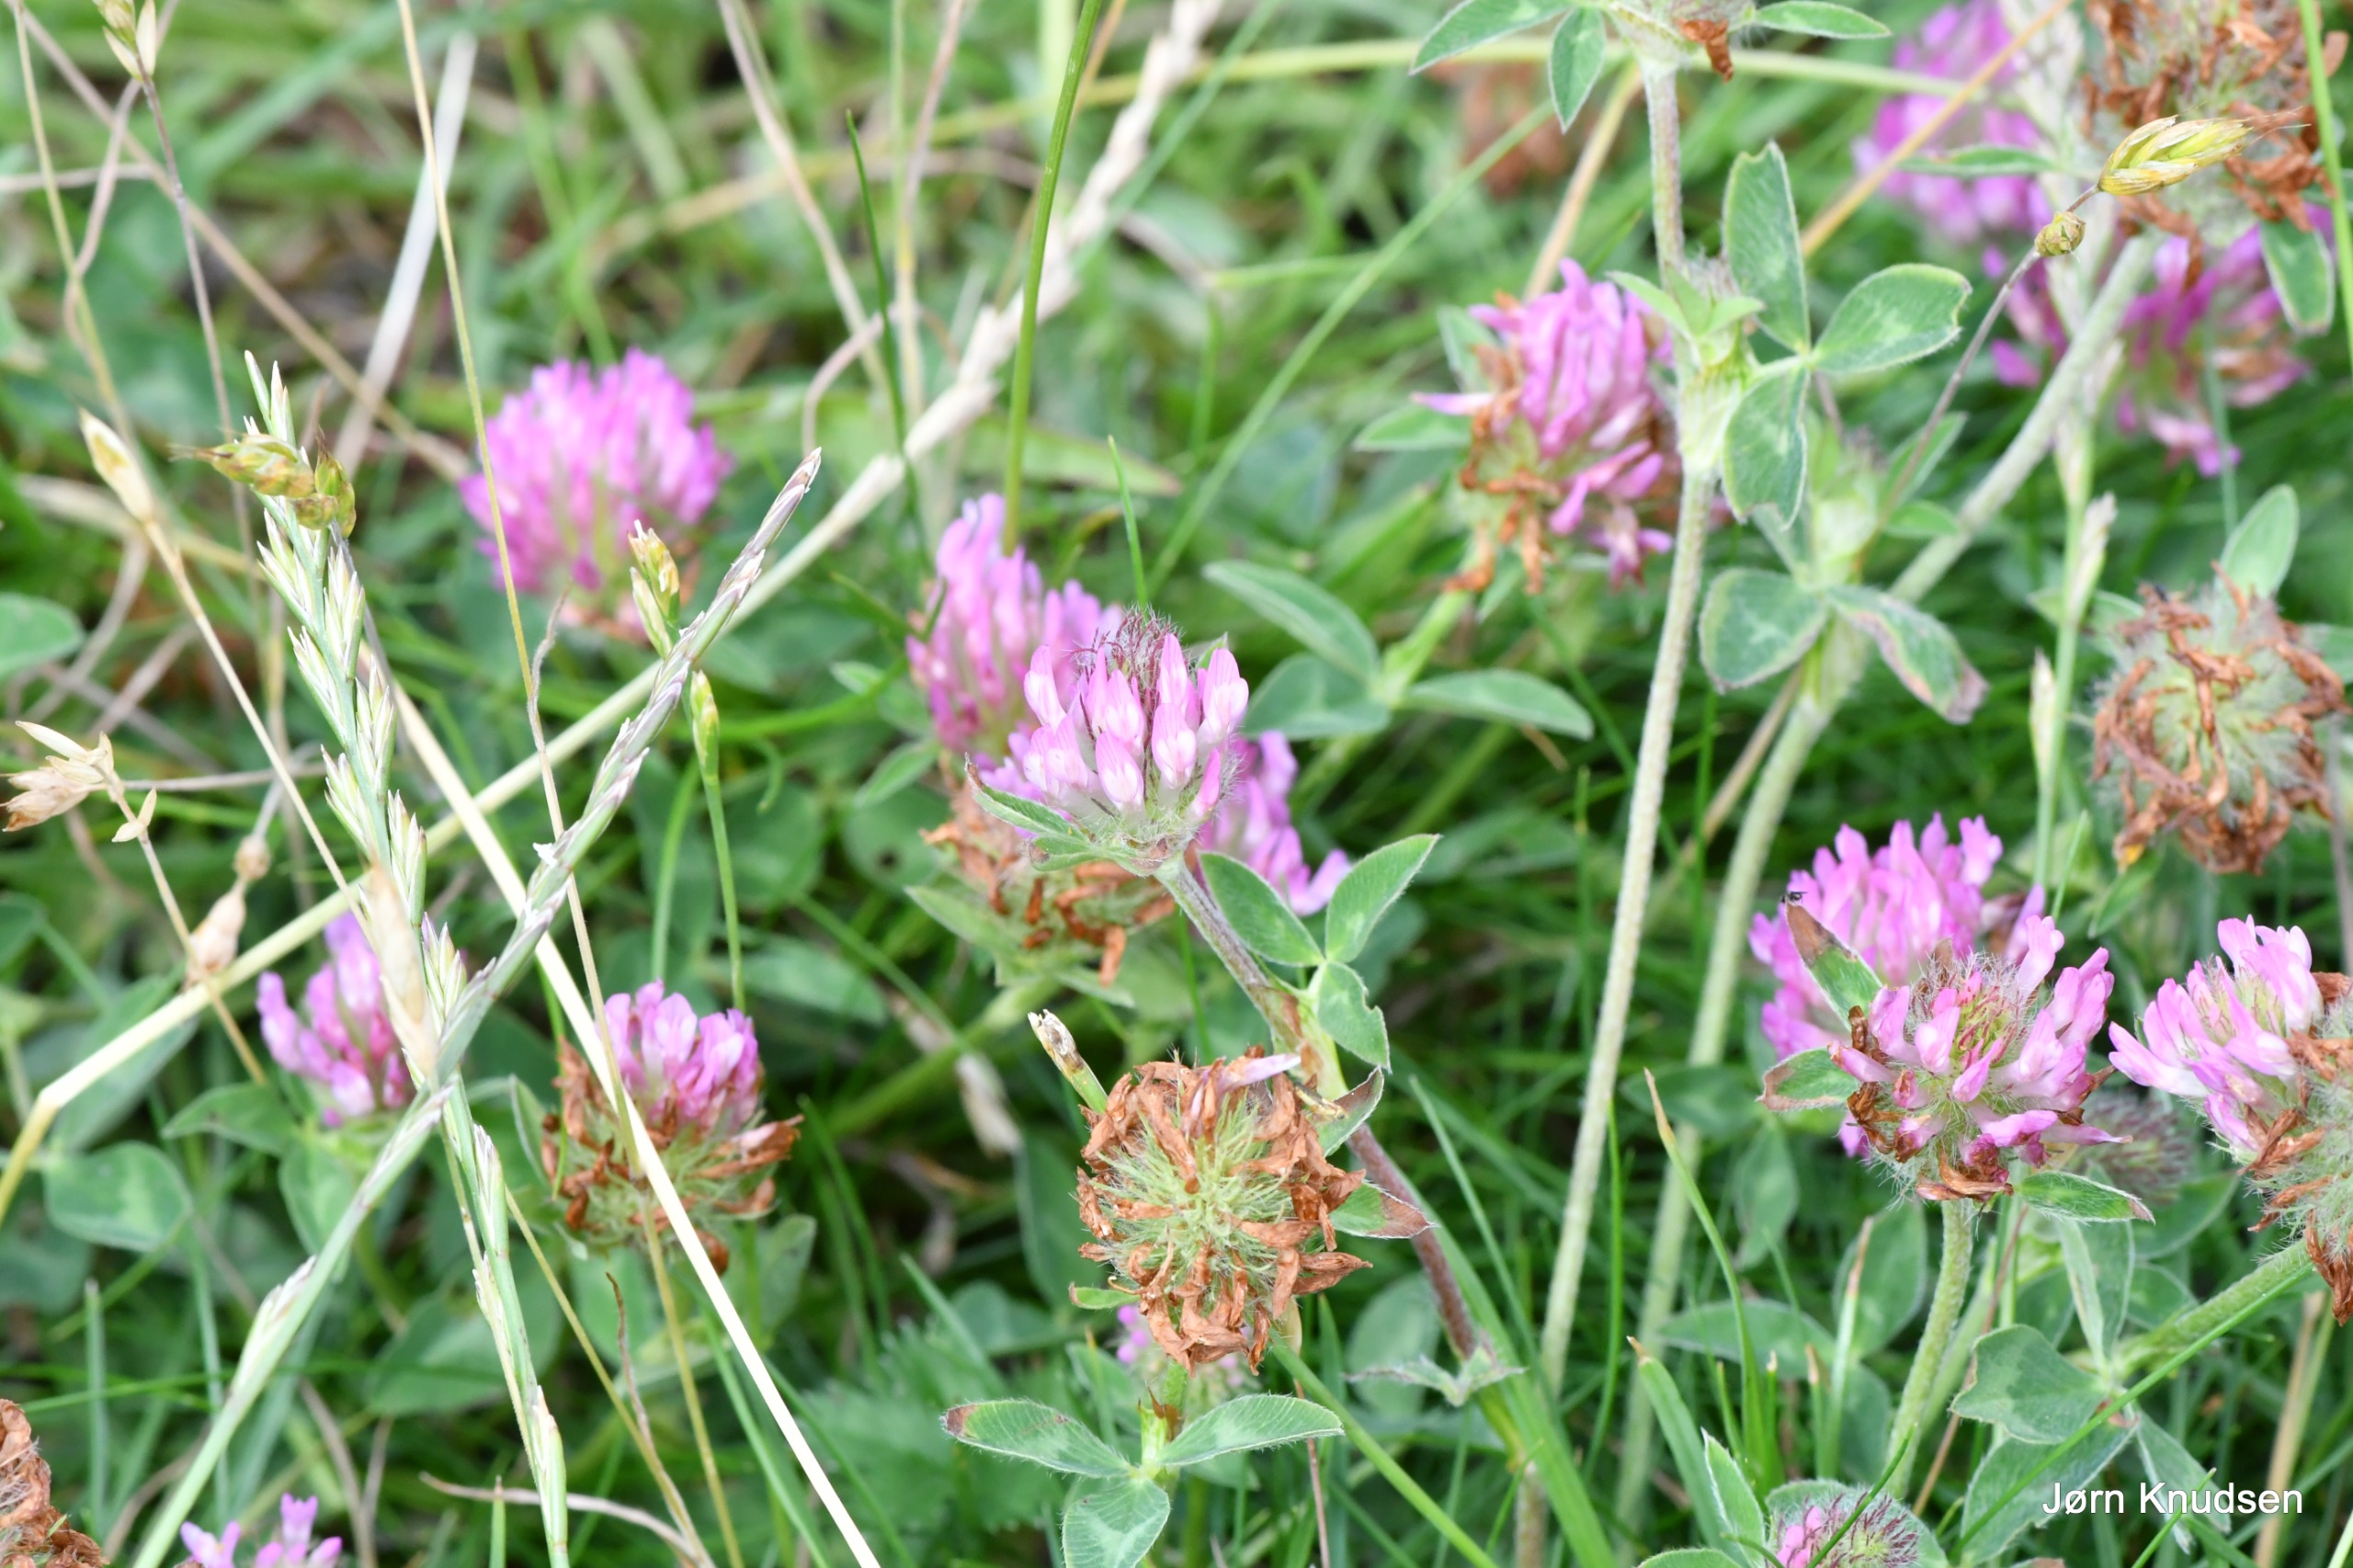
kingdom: Plantae
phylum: Tracheophyta
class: Magnoliopsida
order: Fabales
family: Fabaceae
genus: Trifolium
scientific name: Trifolium pratense
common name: Rød-kløver
